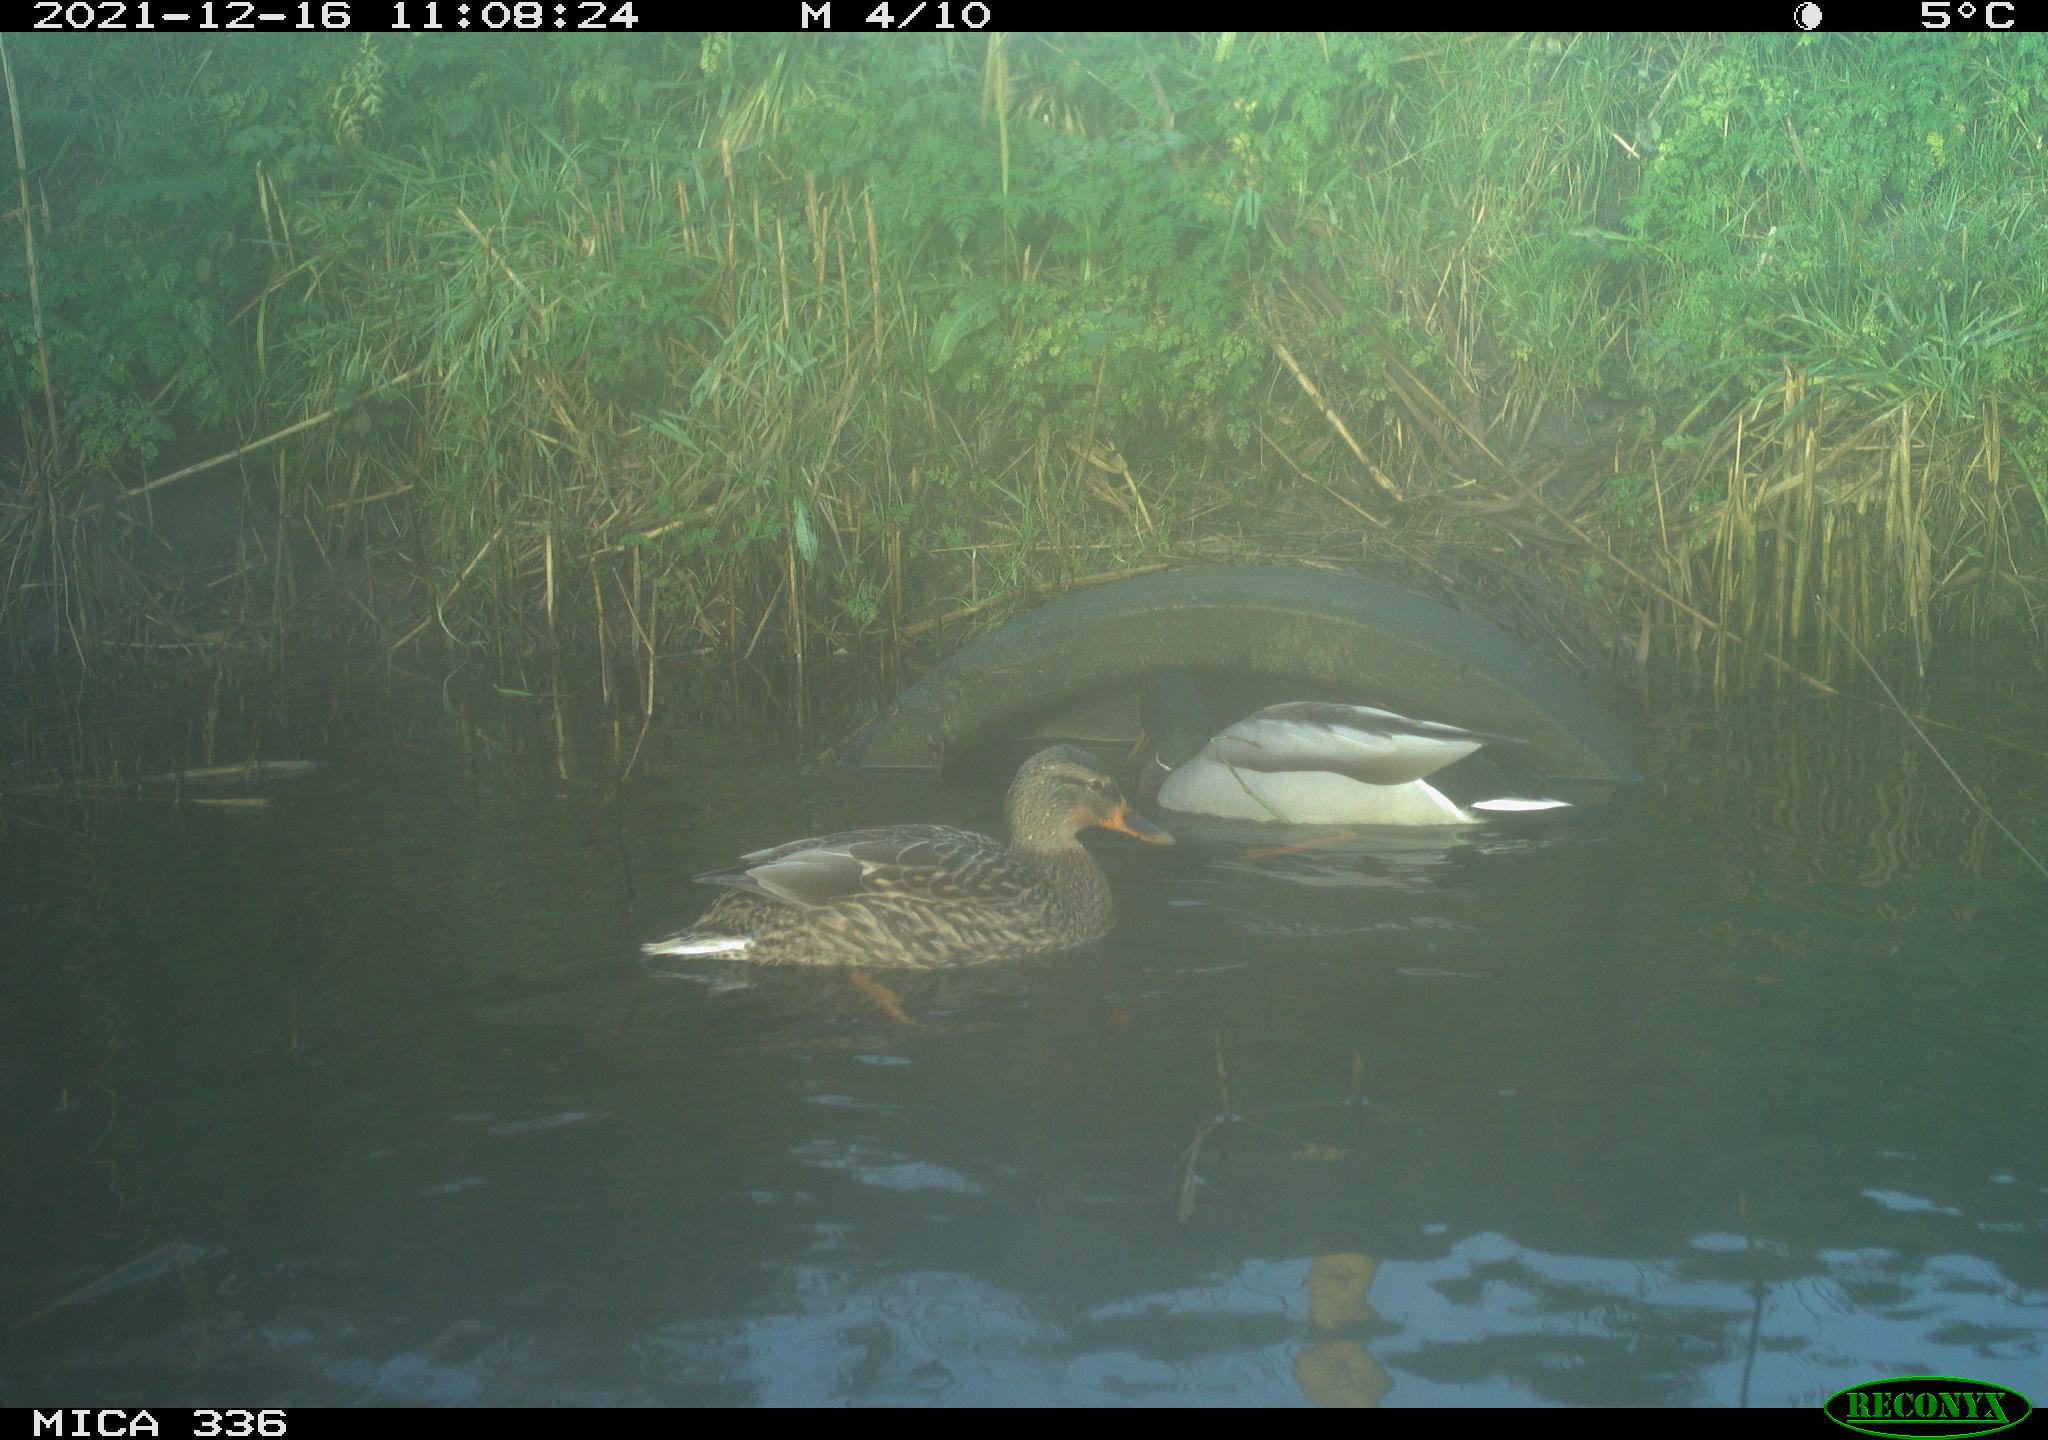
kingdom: Animalia
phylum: Chordata
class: Aves
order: Anseriformes
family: Anatidae
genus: Anas
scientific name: Anas platyrhynchos
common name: Mallard
